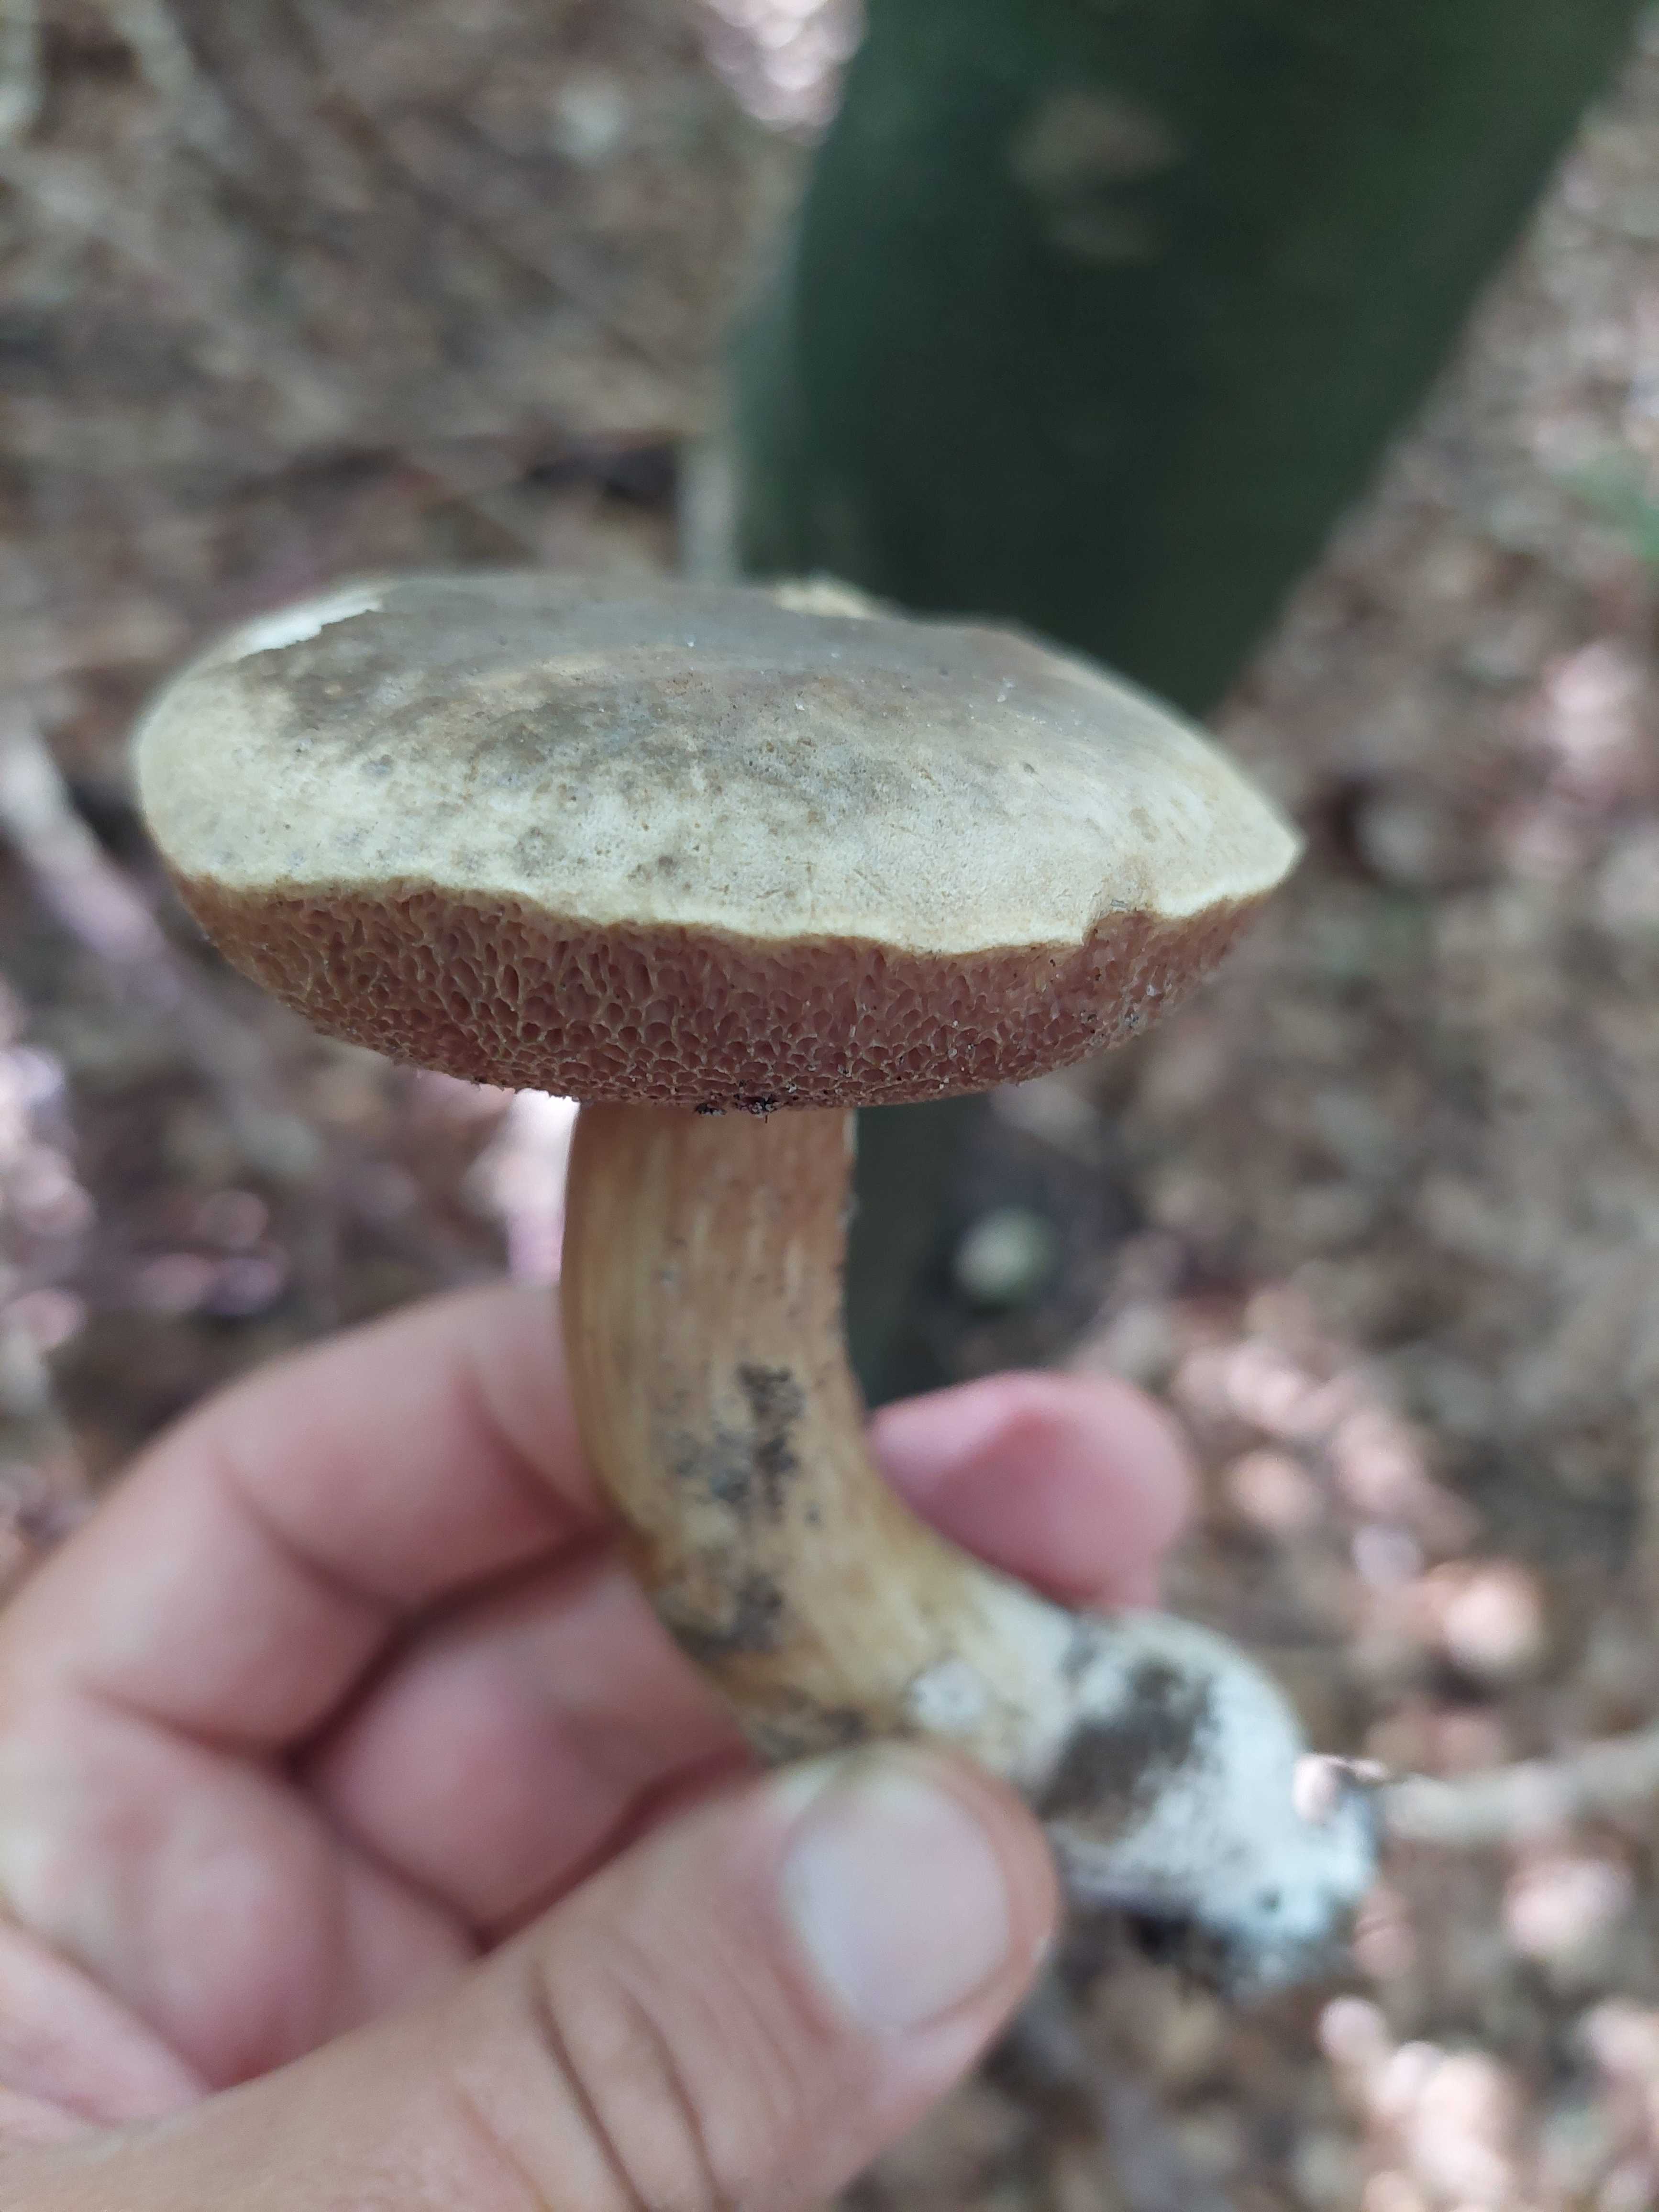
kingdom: Fungi
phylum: Basidiomycota
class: Agaricomycetes
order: Boletales
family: Boletaceae
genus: Porphyrellus
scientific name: Porphyrellus porphyrosporus
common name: sodrørhat
